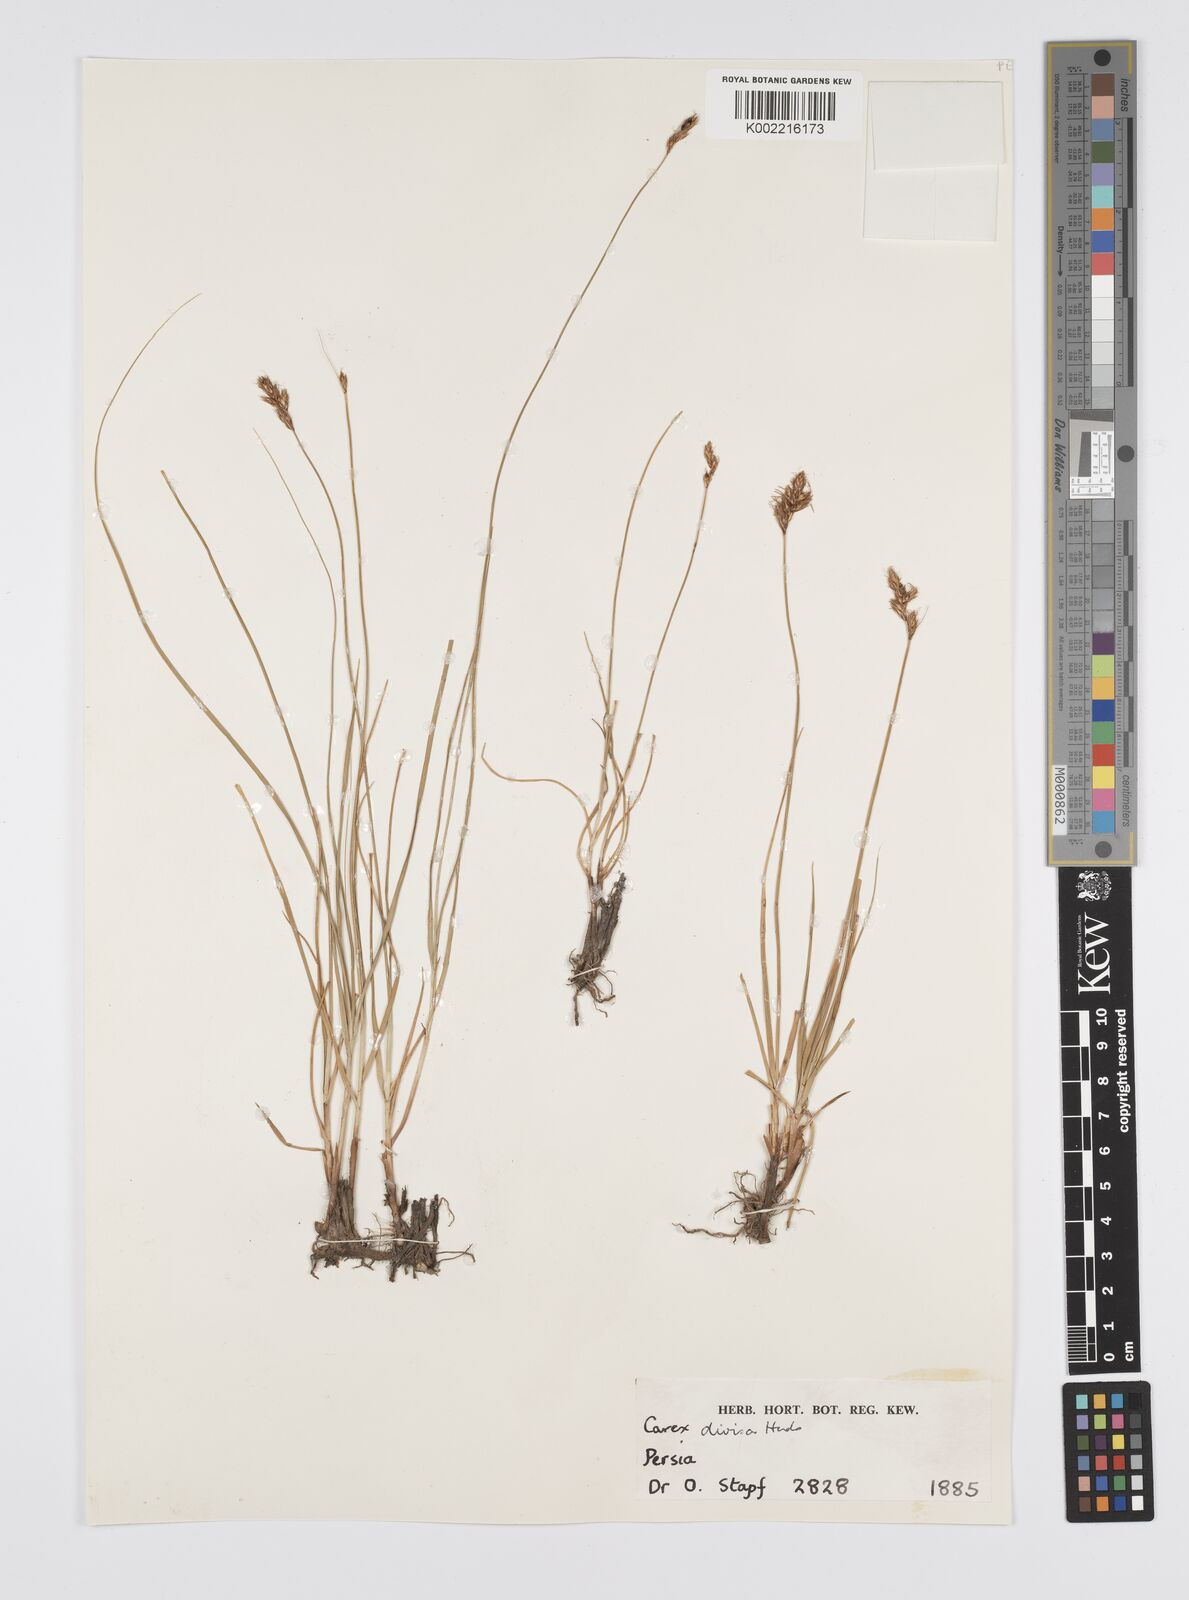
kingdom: Plantae
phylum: Tracheophyta
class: Liliopsida
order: Poales
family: Cyperaceae
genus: Carex
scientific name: Carex divisa
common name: Divided sedge
